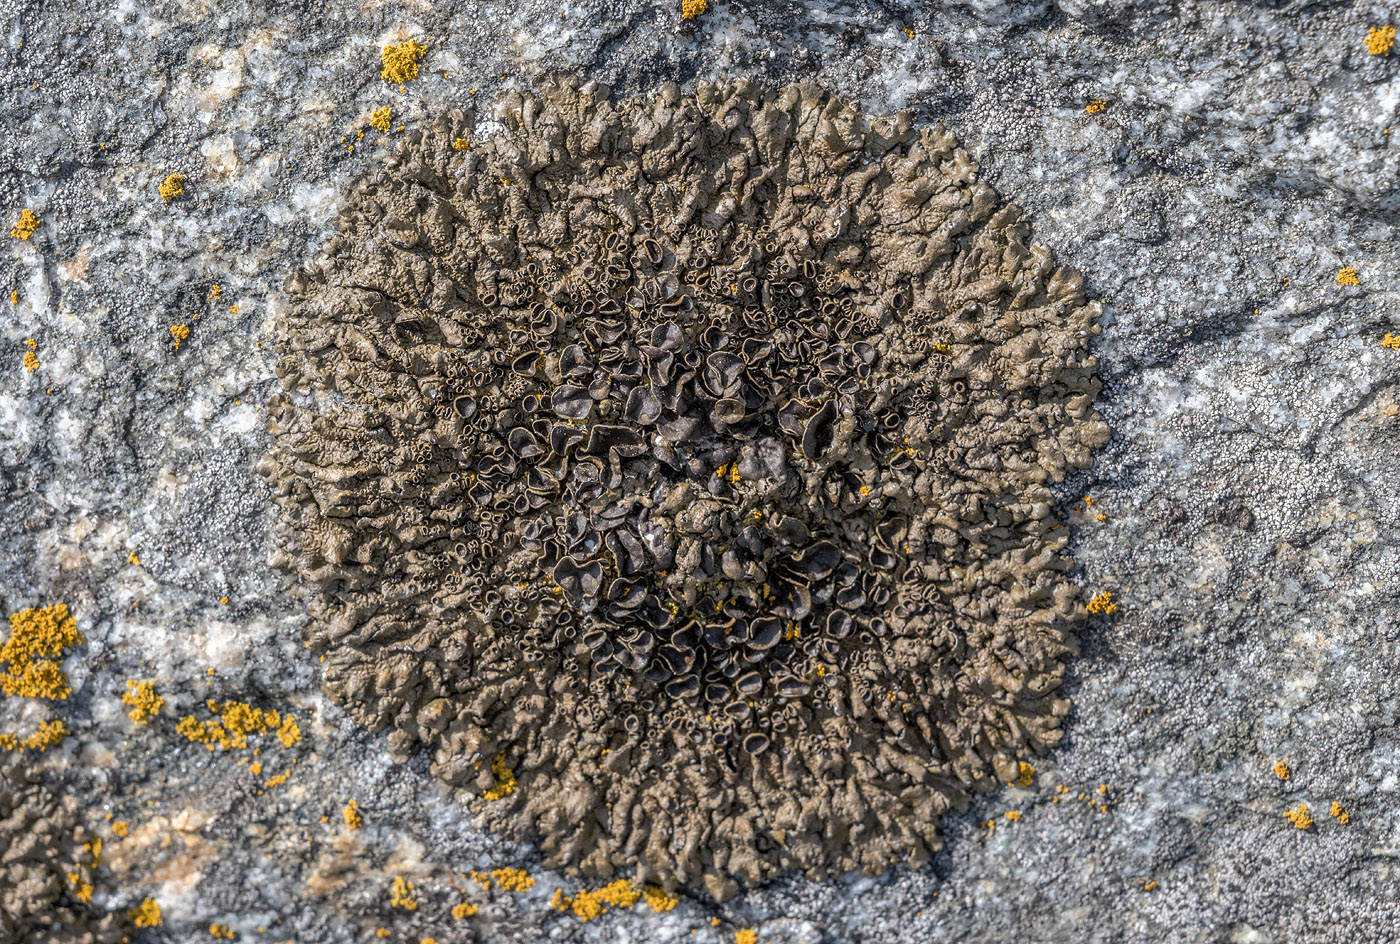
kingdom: Fungi
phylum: Ascomycota
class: Lecanoromycetes
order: Lecanorales
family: Parmeliaceae
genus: Xanthoparmelia
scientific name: Xanthoparmelia pulla
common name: mørkebrun skållav
